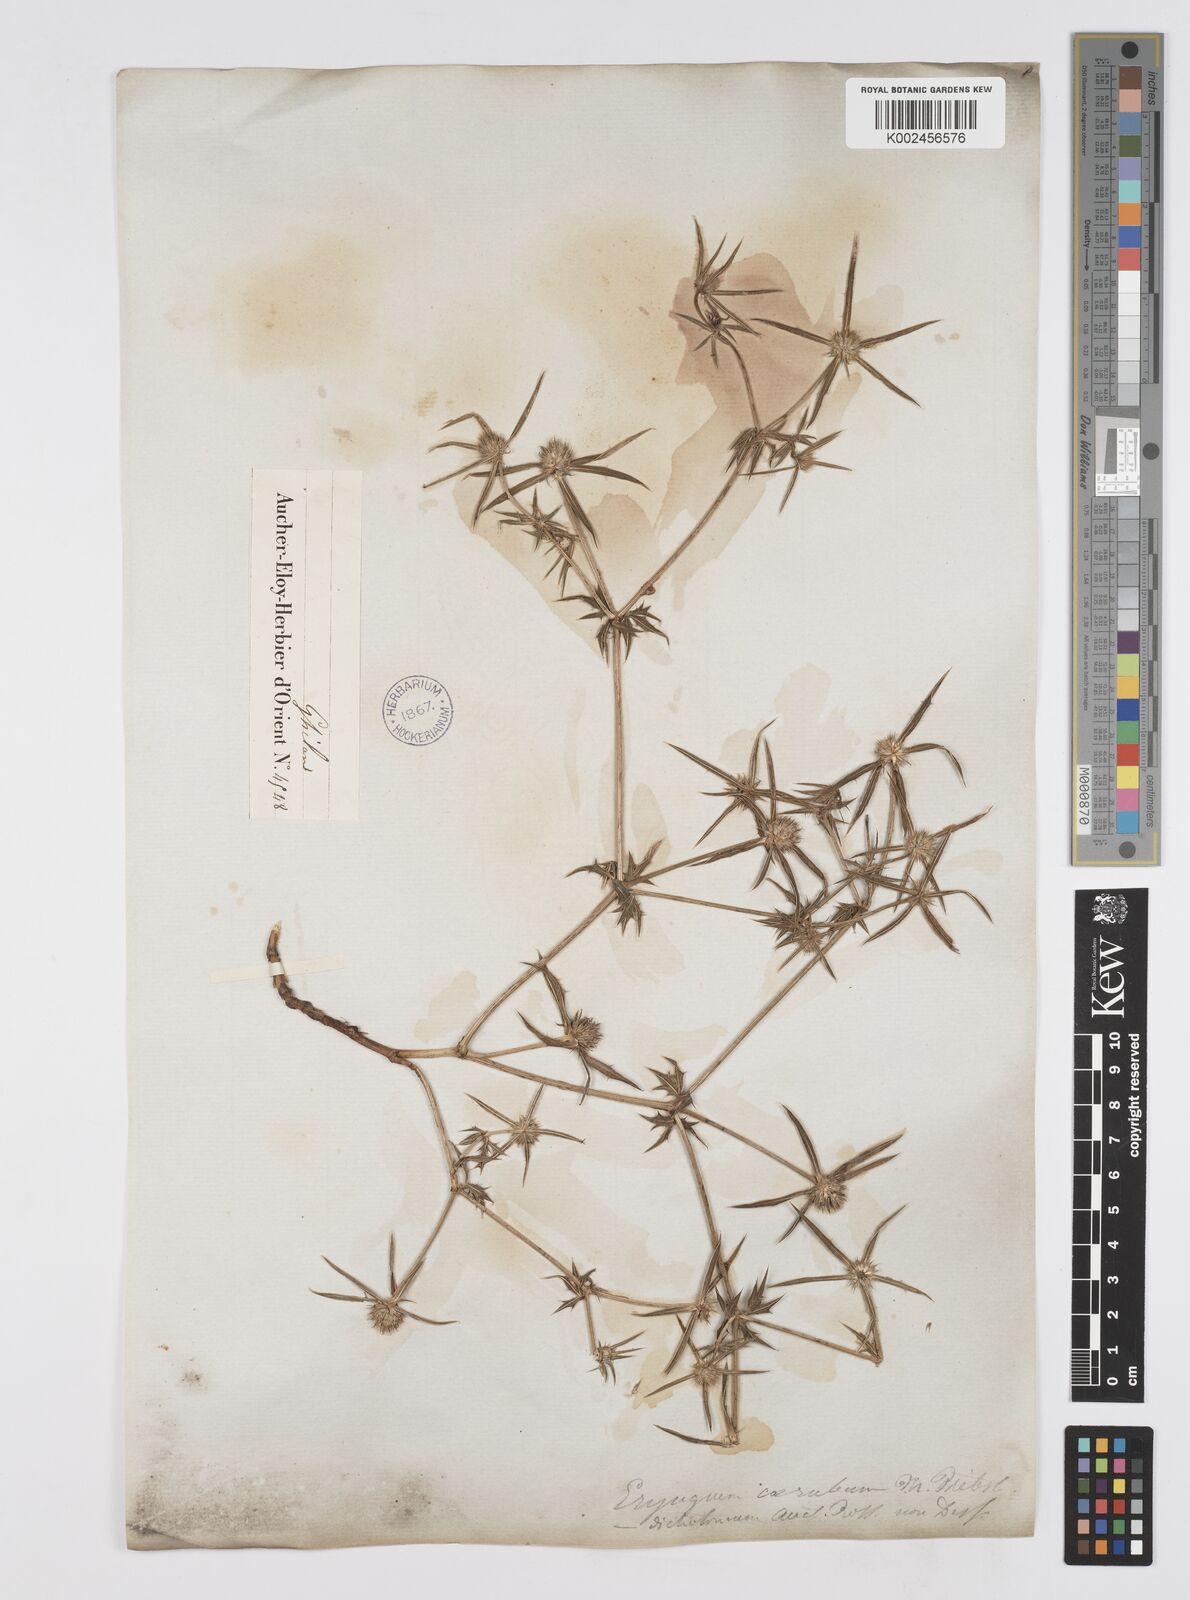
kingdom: Plantae
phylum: Tracheophyta
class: Magnoliopsida
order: Apiales
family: Apiaceae
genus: Eryngium
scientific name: Eryngium caeruleum
